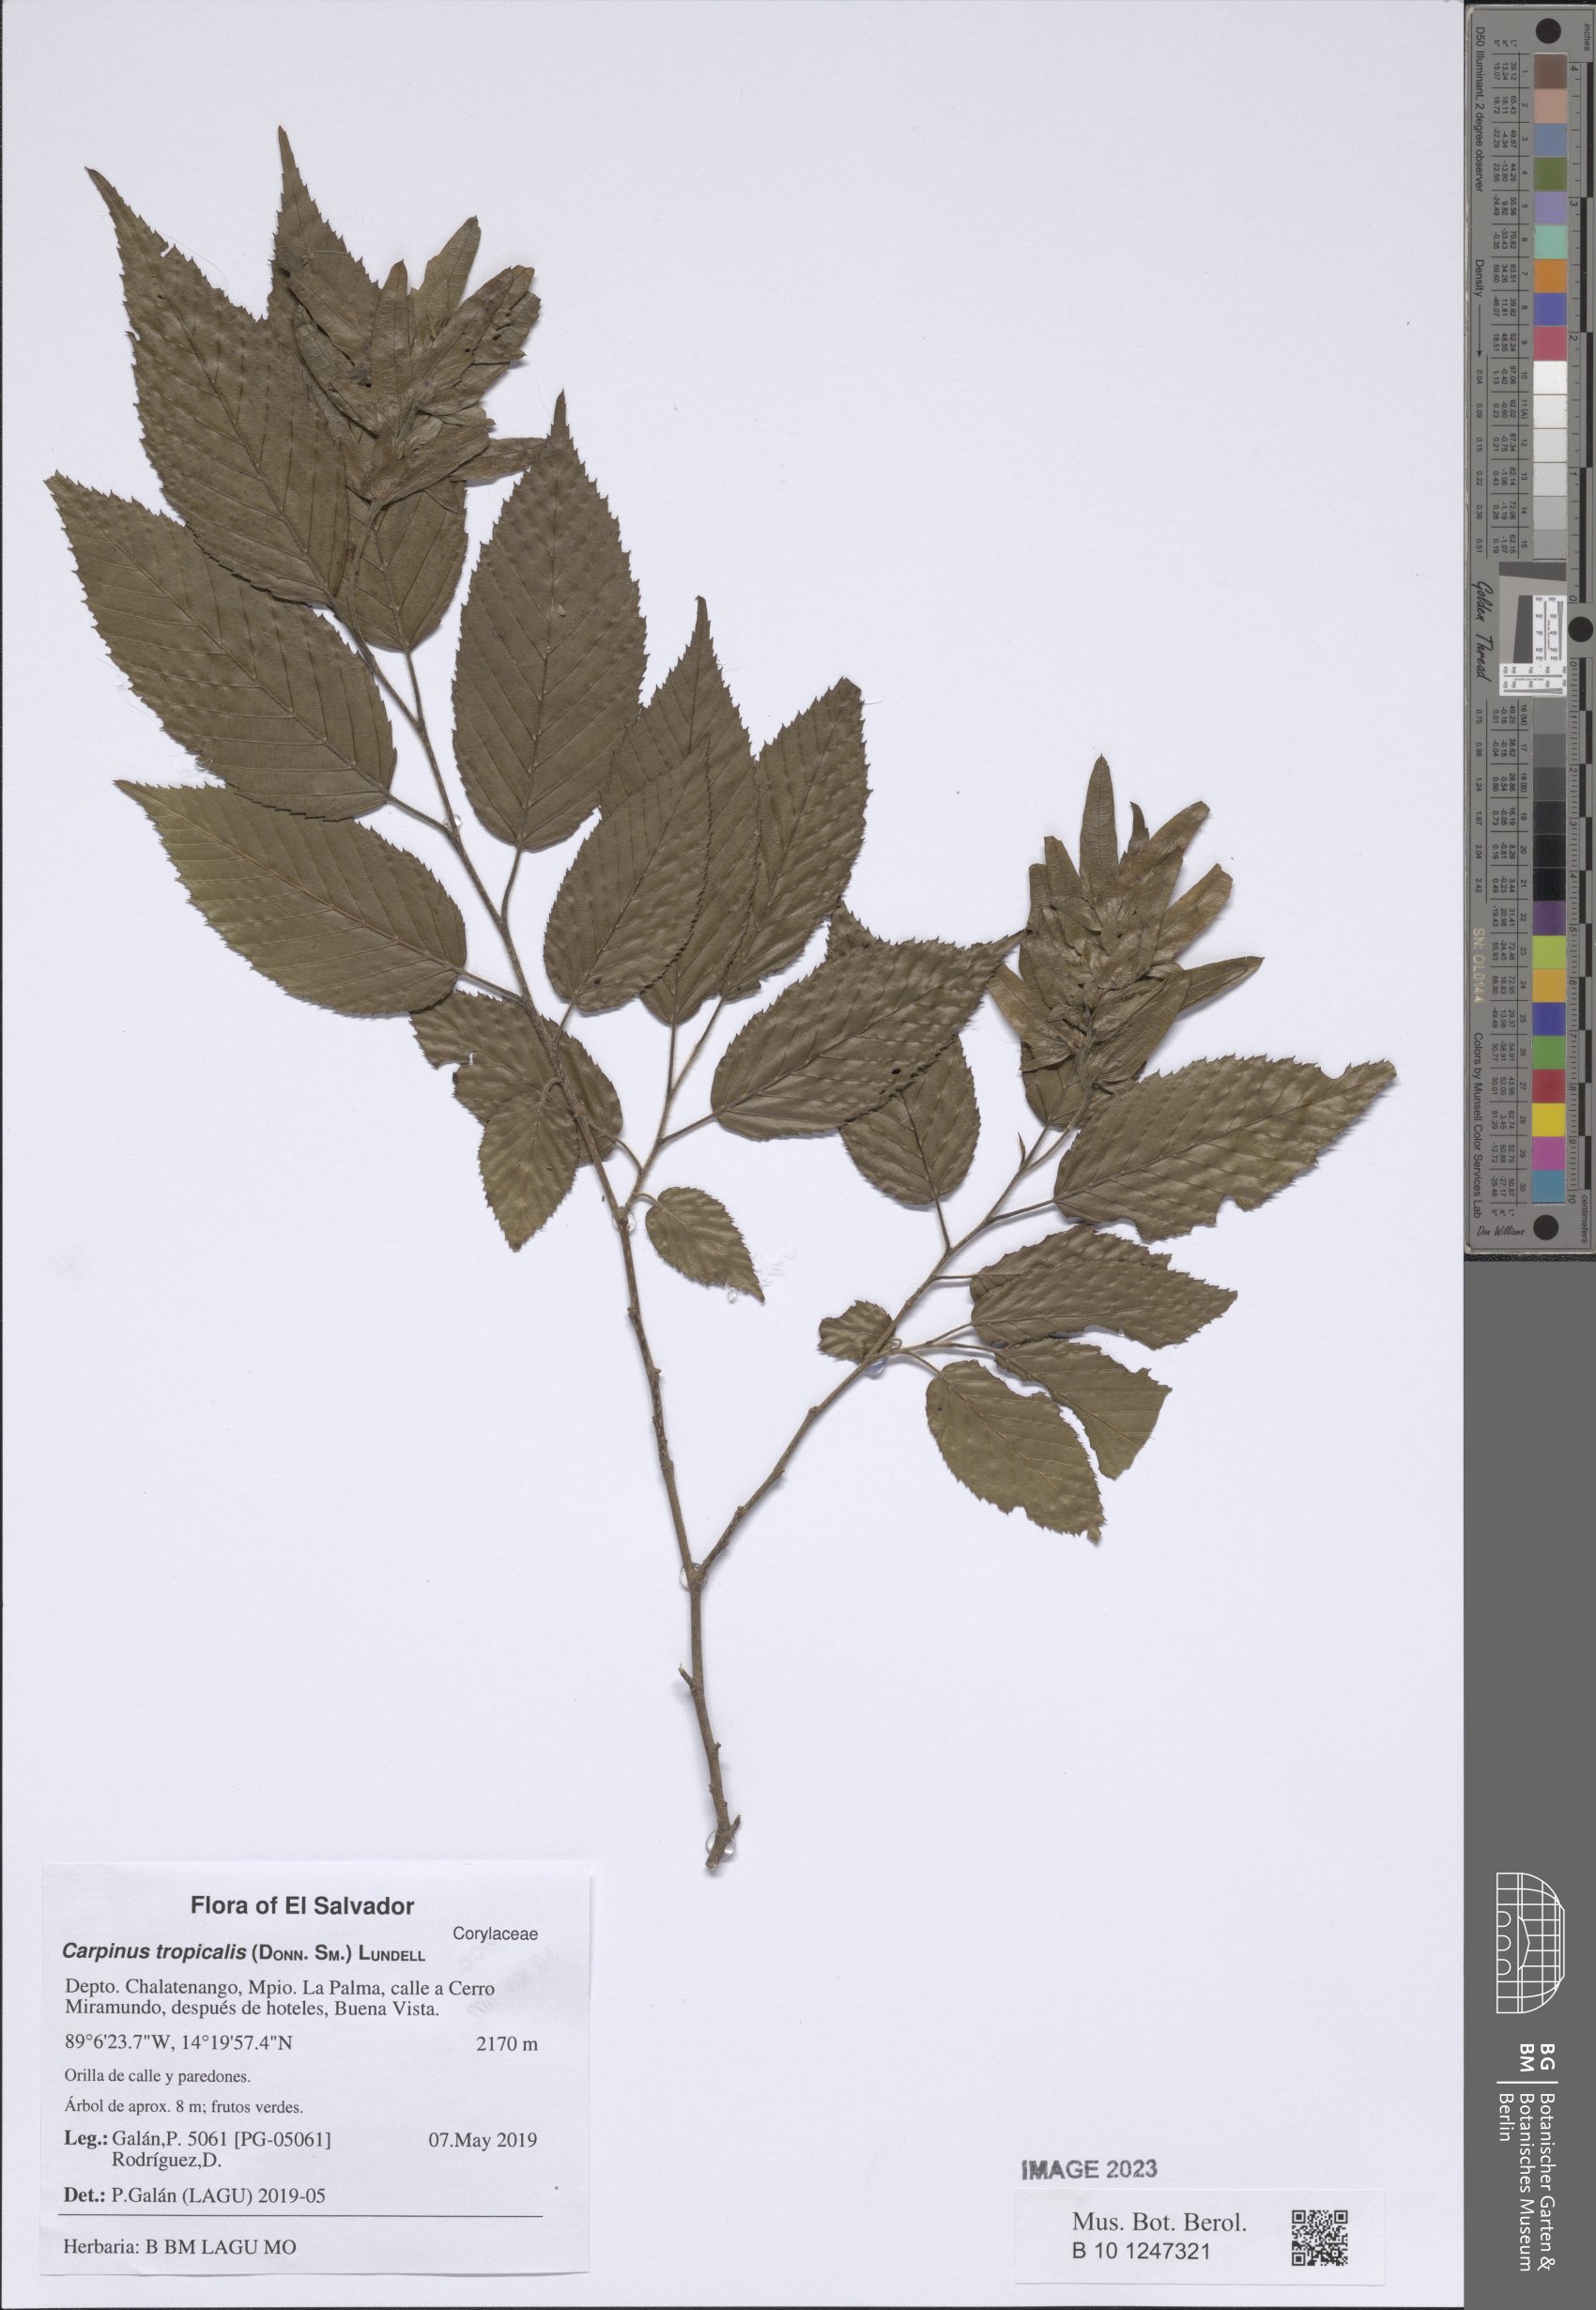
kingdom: Plantae
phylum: Tracheophyta
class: Magnoliopsida
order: Fagales
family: Betulaceae
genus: Carpinus
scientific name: Carpinus tropicalis
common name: Hornbeam
